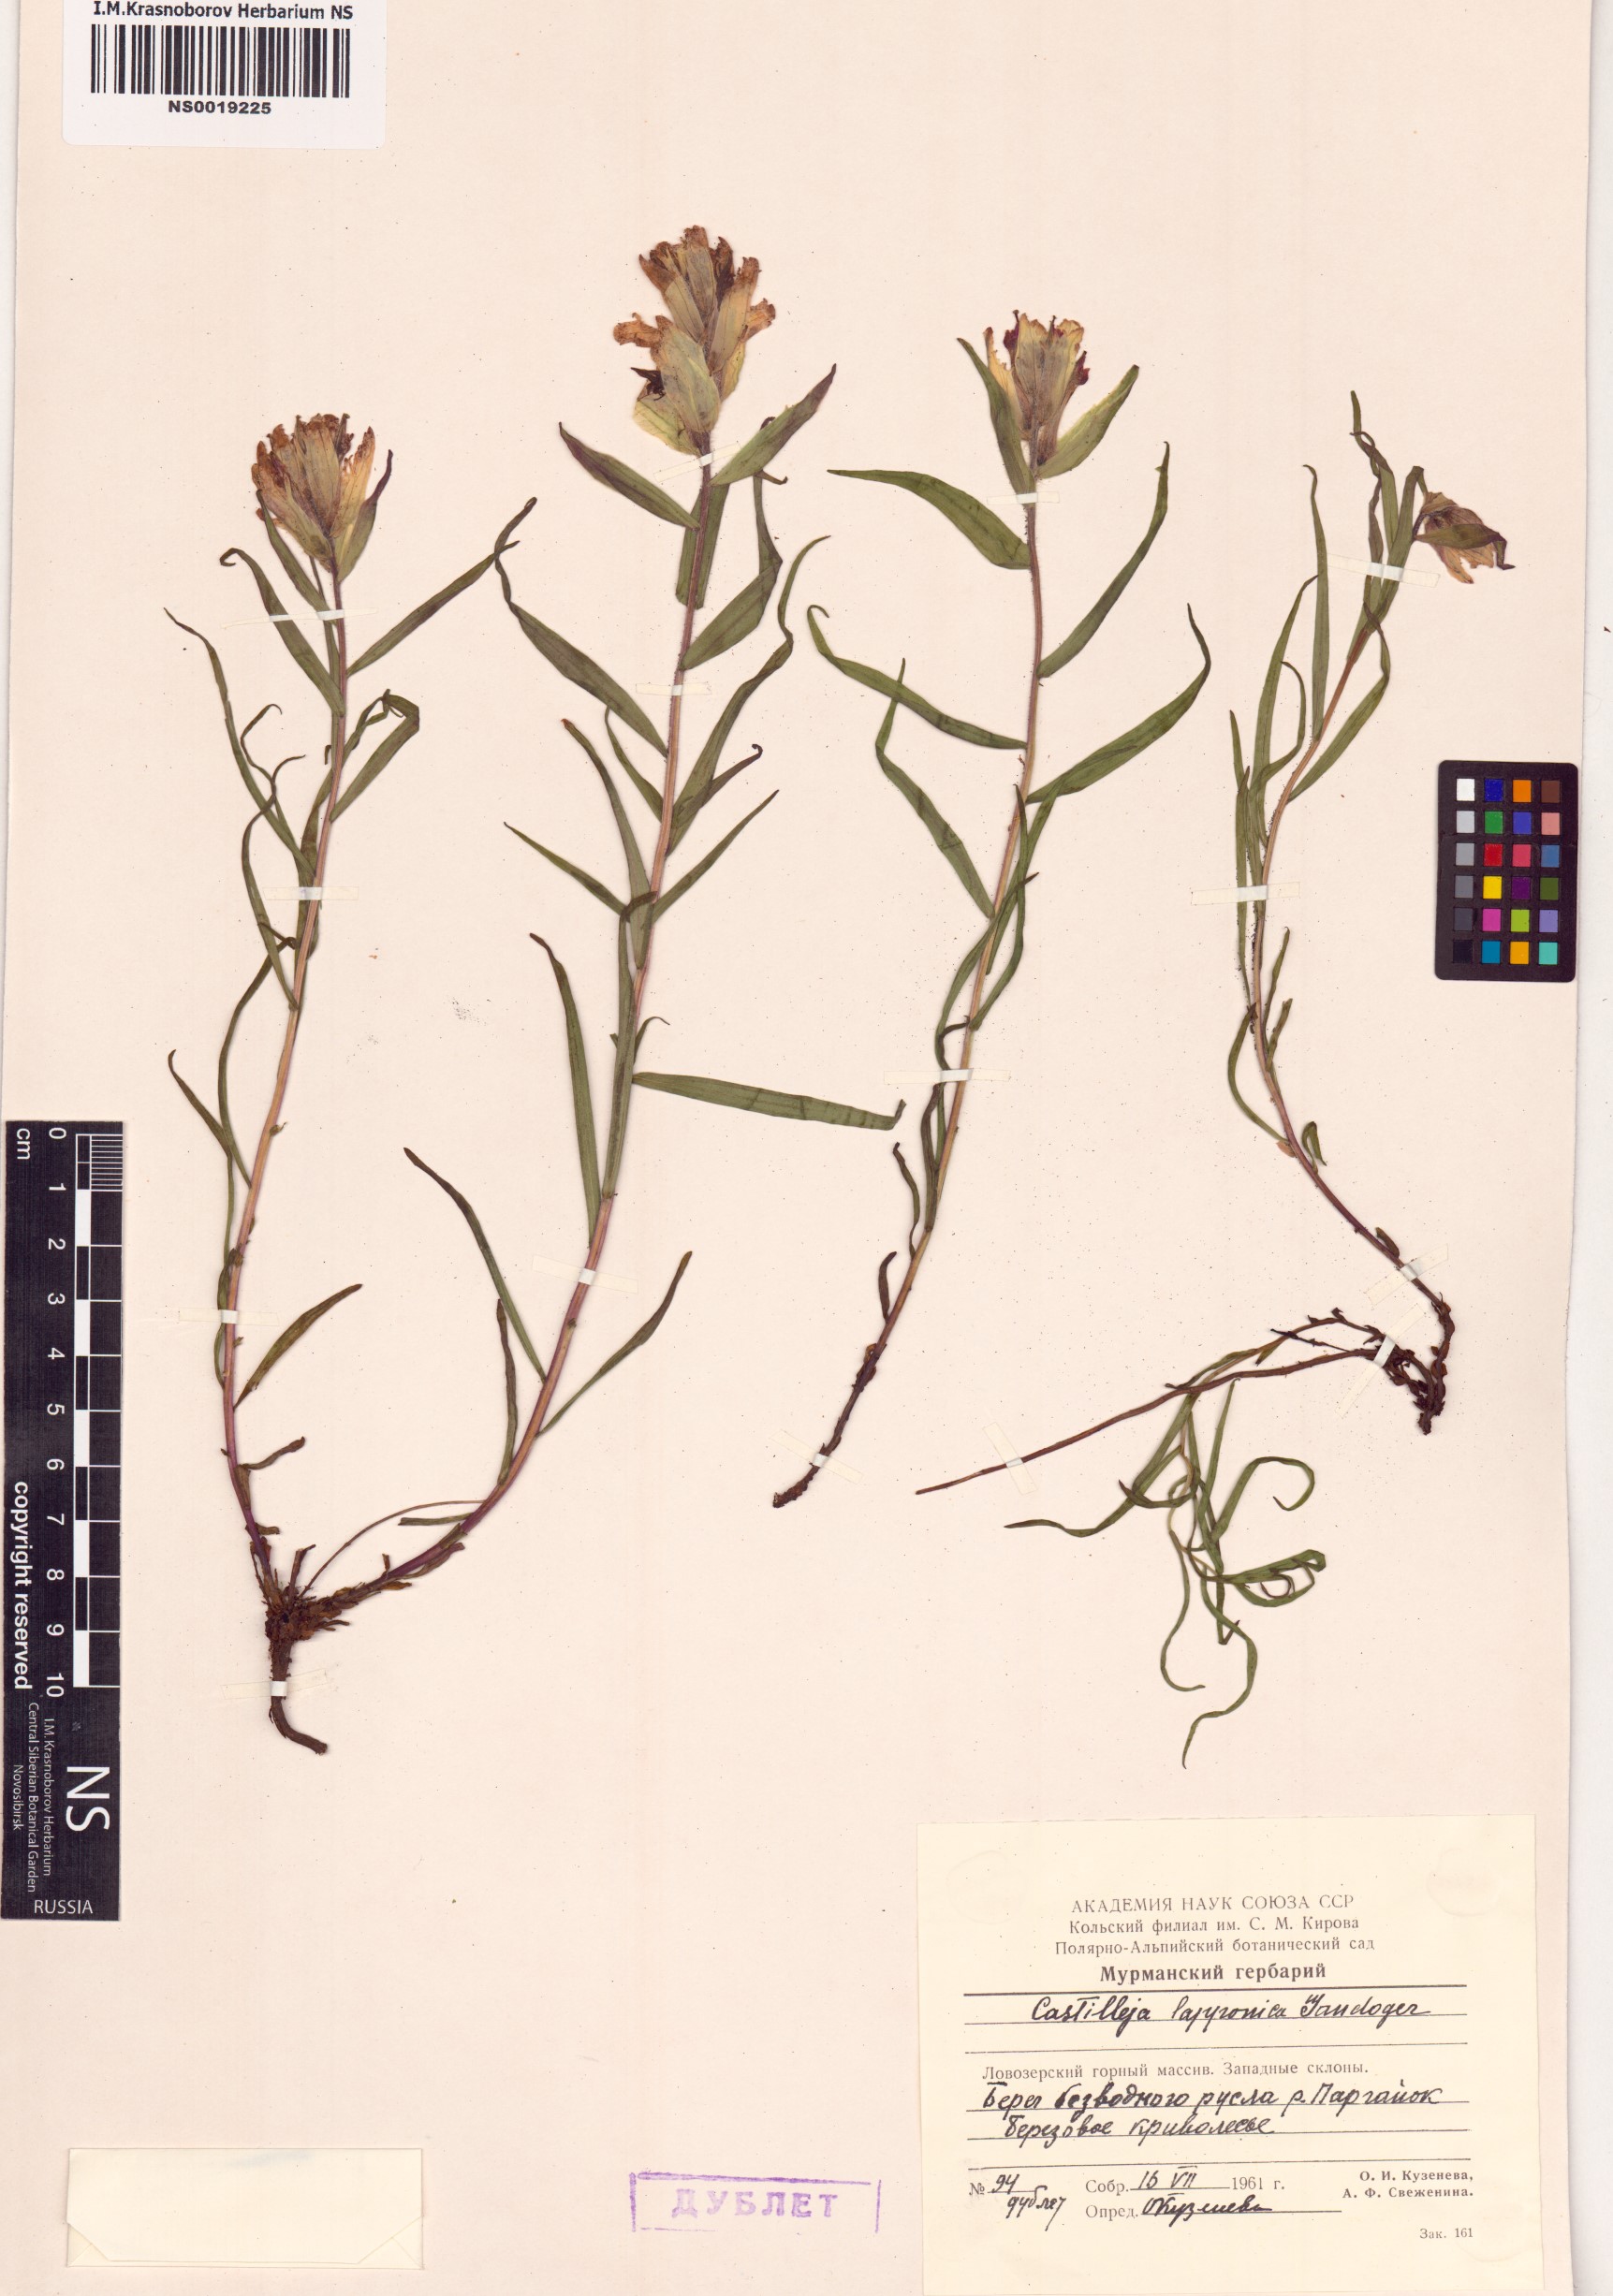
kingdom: Plantae
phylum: Tracheophyta
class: Magnoliopsida
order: Lamiales
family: Orobanchaceae
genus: Castilleja
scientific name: Castilleja lapponica
